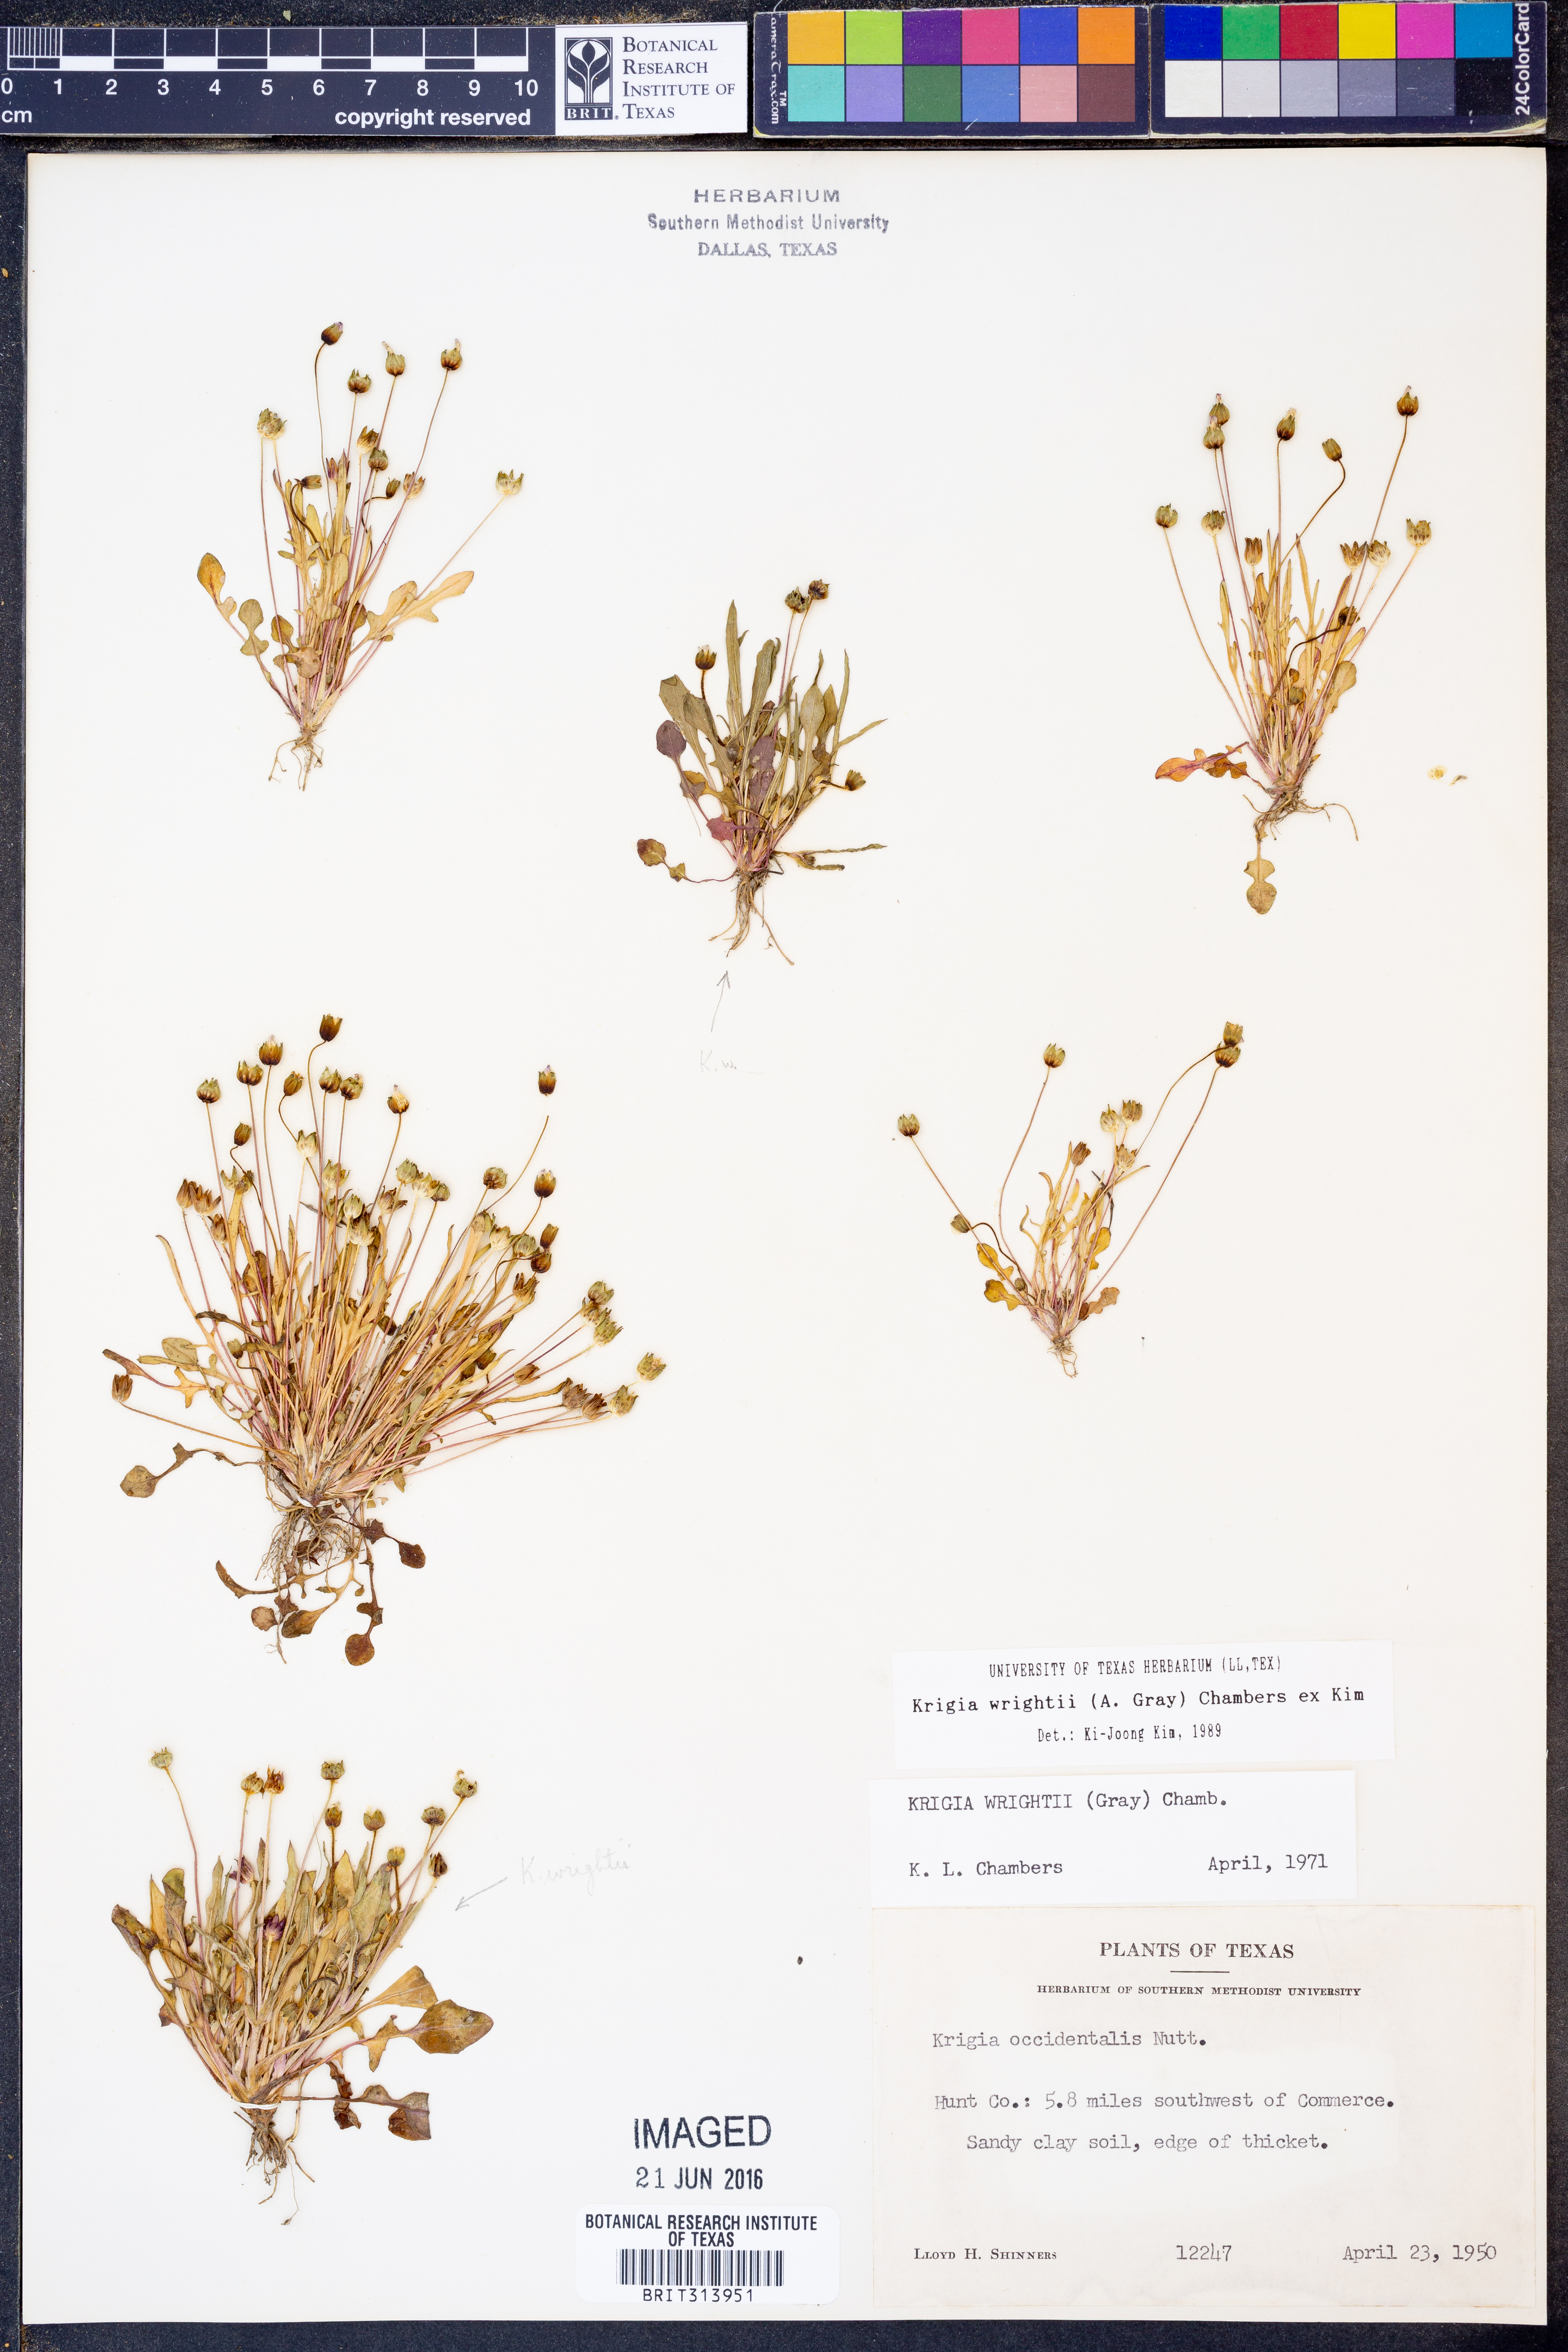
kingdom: Plantae
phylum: Tracheophyta
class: Magnoliopsida
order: Asterales
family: Asteraceae
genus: Krigia
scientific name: Krigia wrightii
